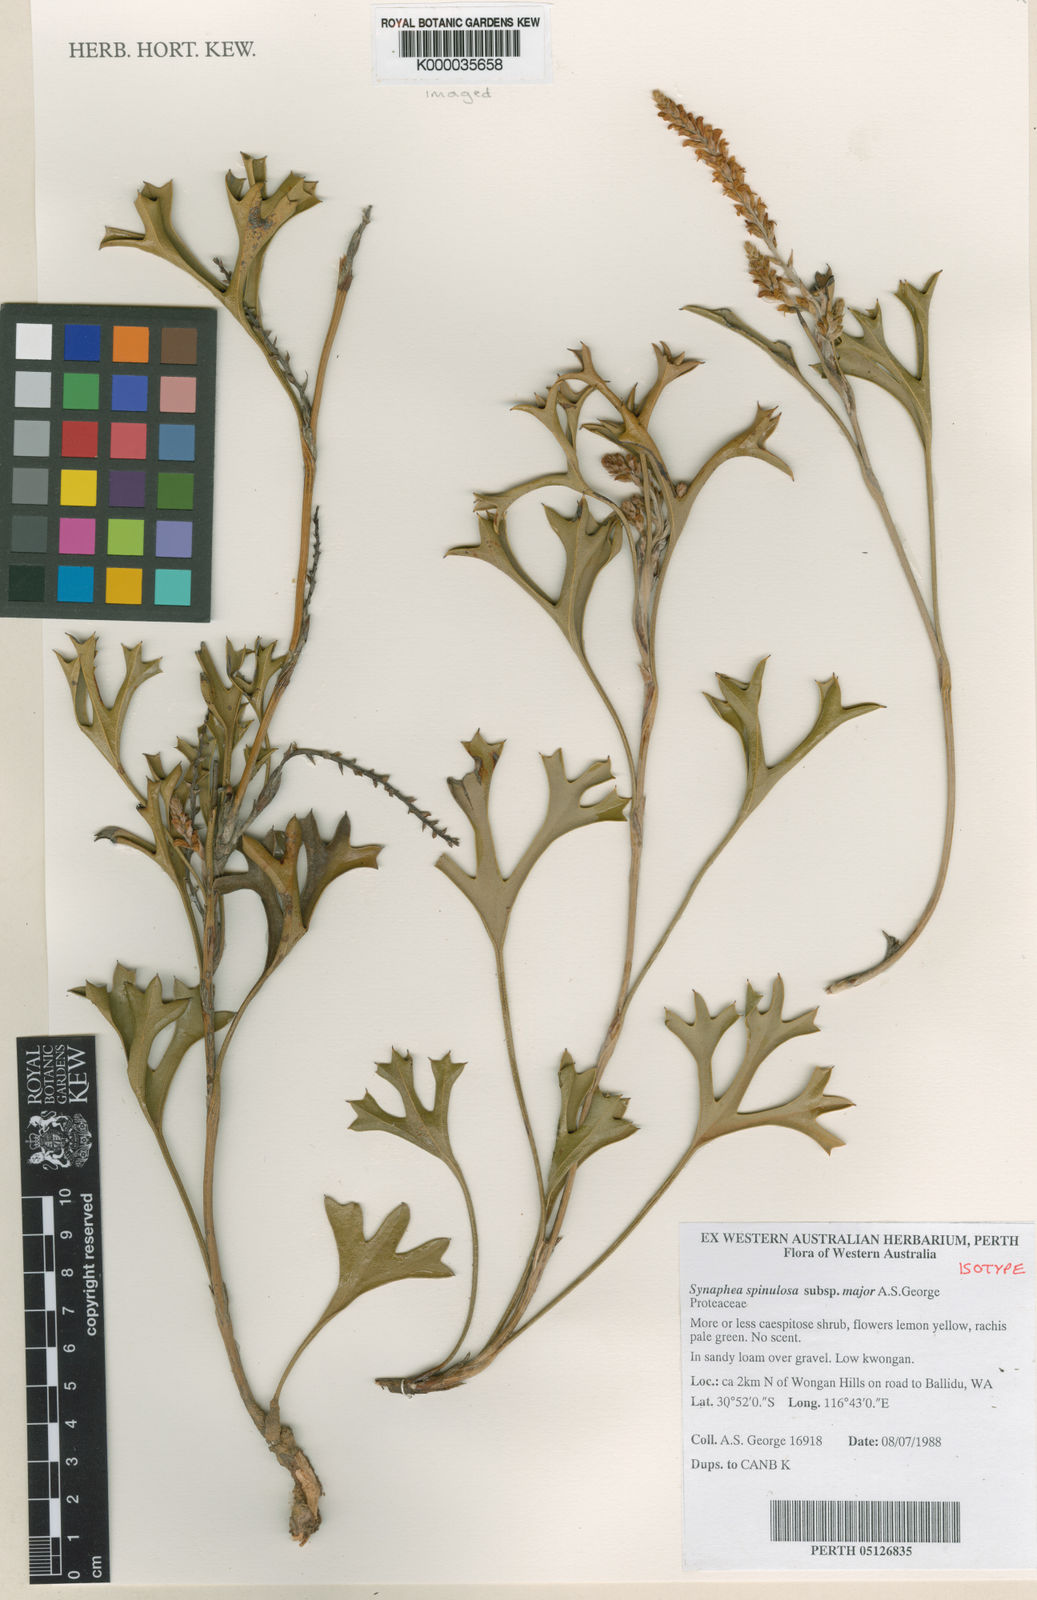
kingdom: Plantae
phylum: Tracheophyta
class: Magnoliopsida
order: Proteales
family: Proteaceae
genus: Synaphea
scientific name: Synaphea spinulosa
